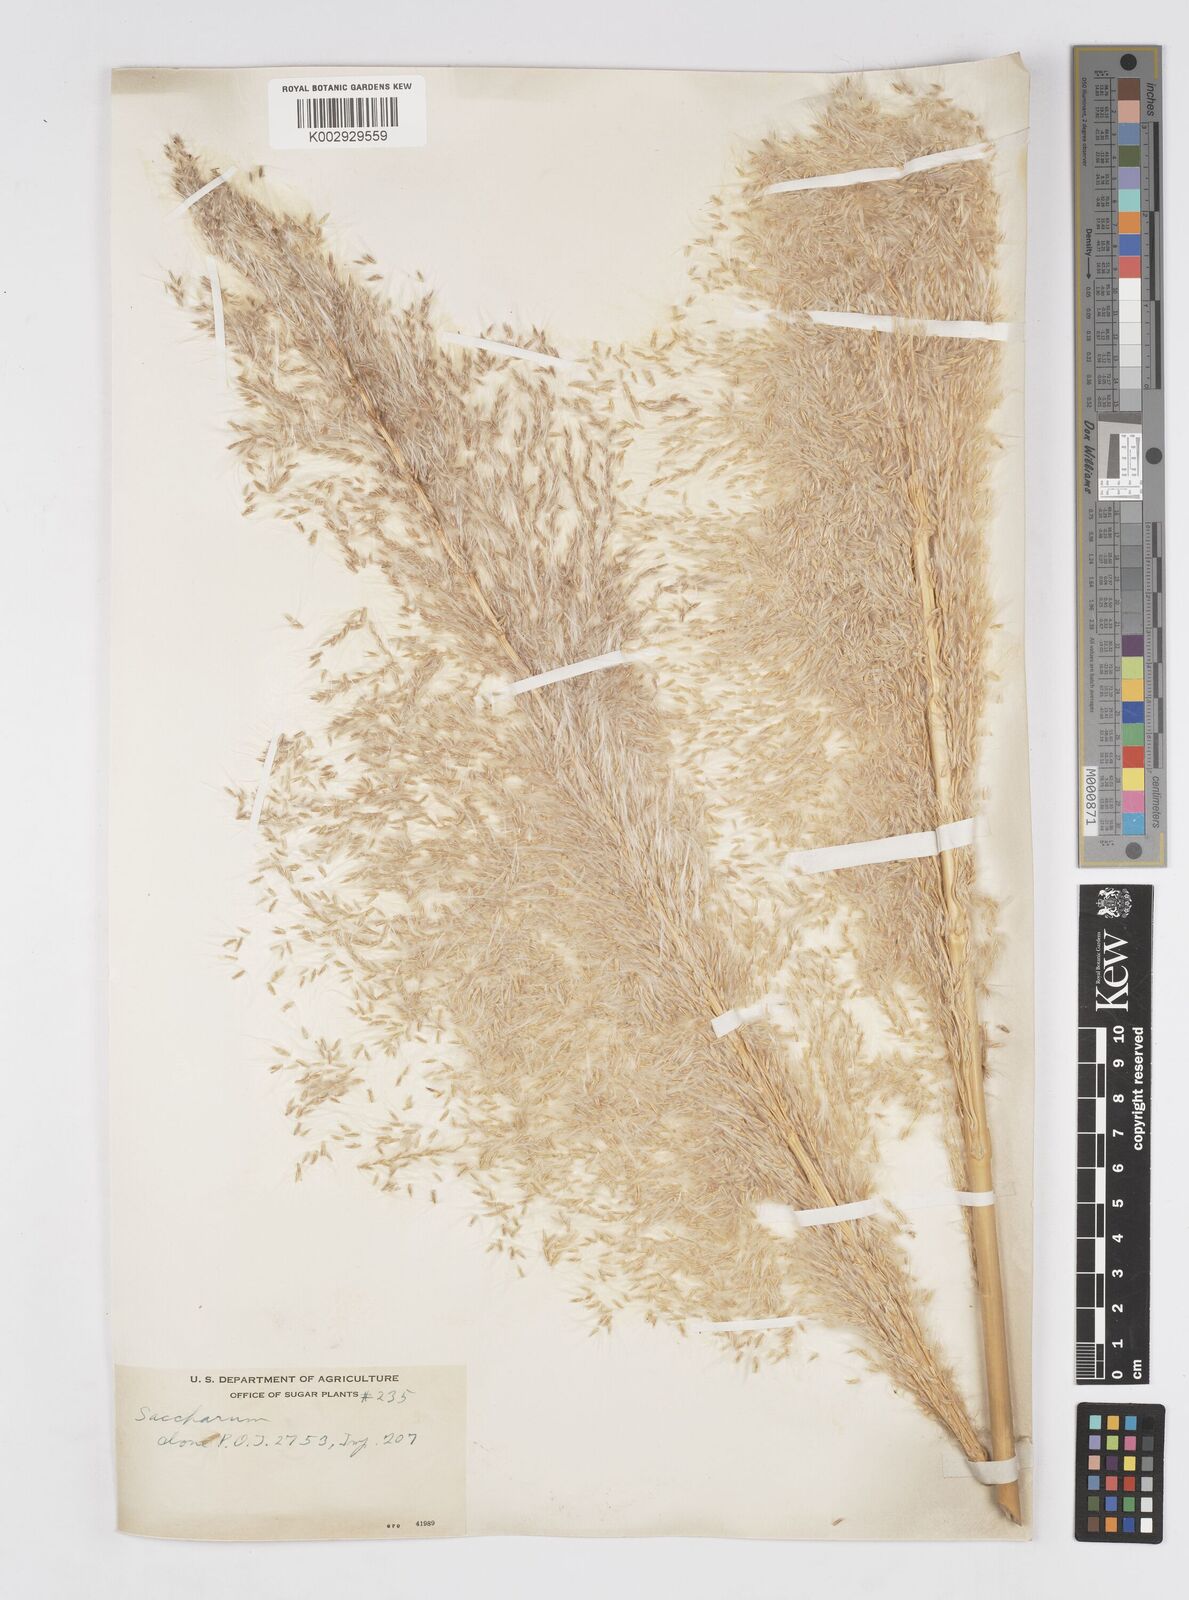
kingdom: Plantae
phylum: Tracheophyta
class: Liliopsida
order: Poales
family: Poaceae
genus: Saccharum
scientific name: Saccharum officinarum
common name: Sugarcane
